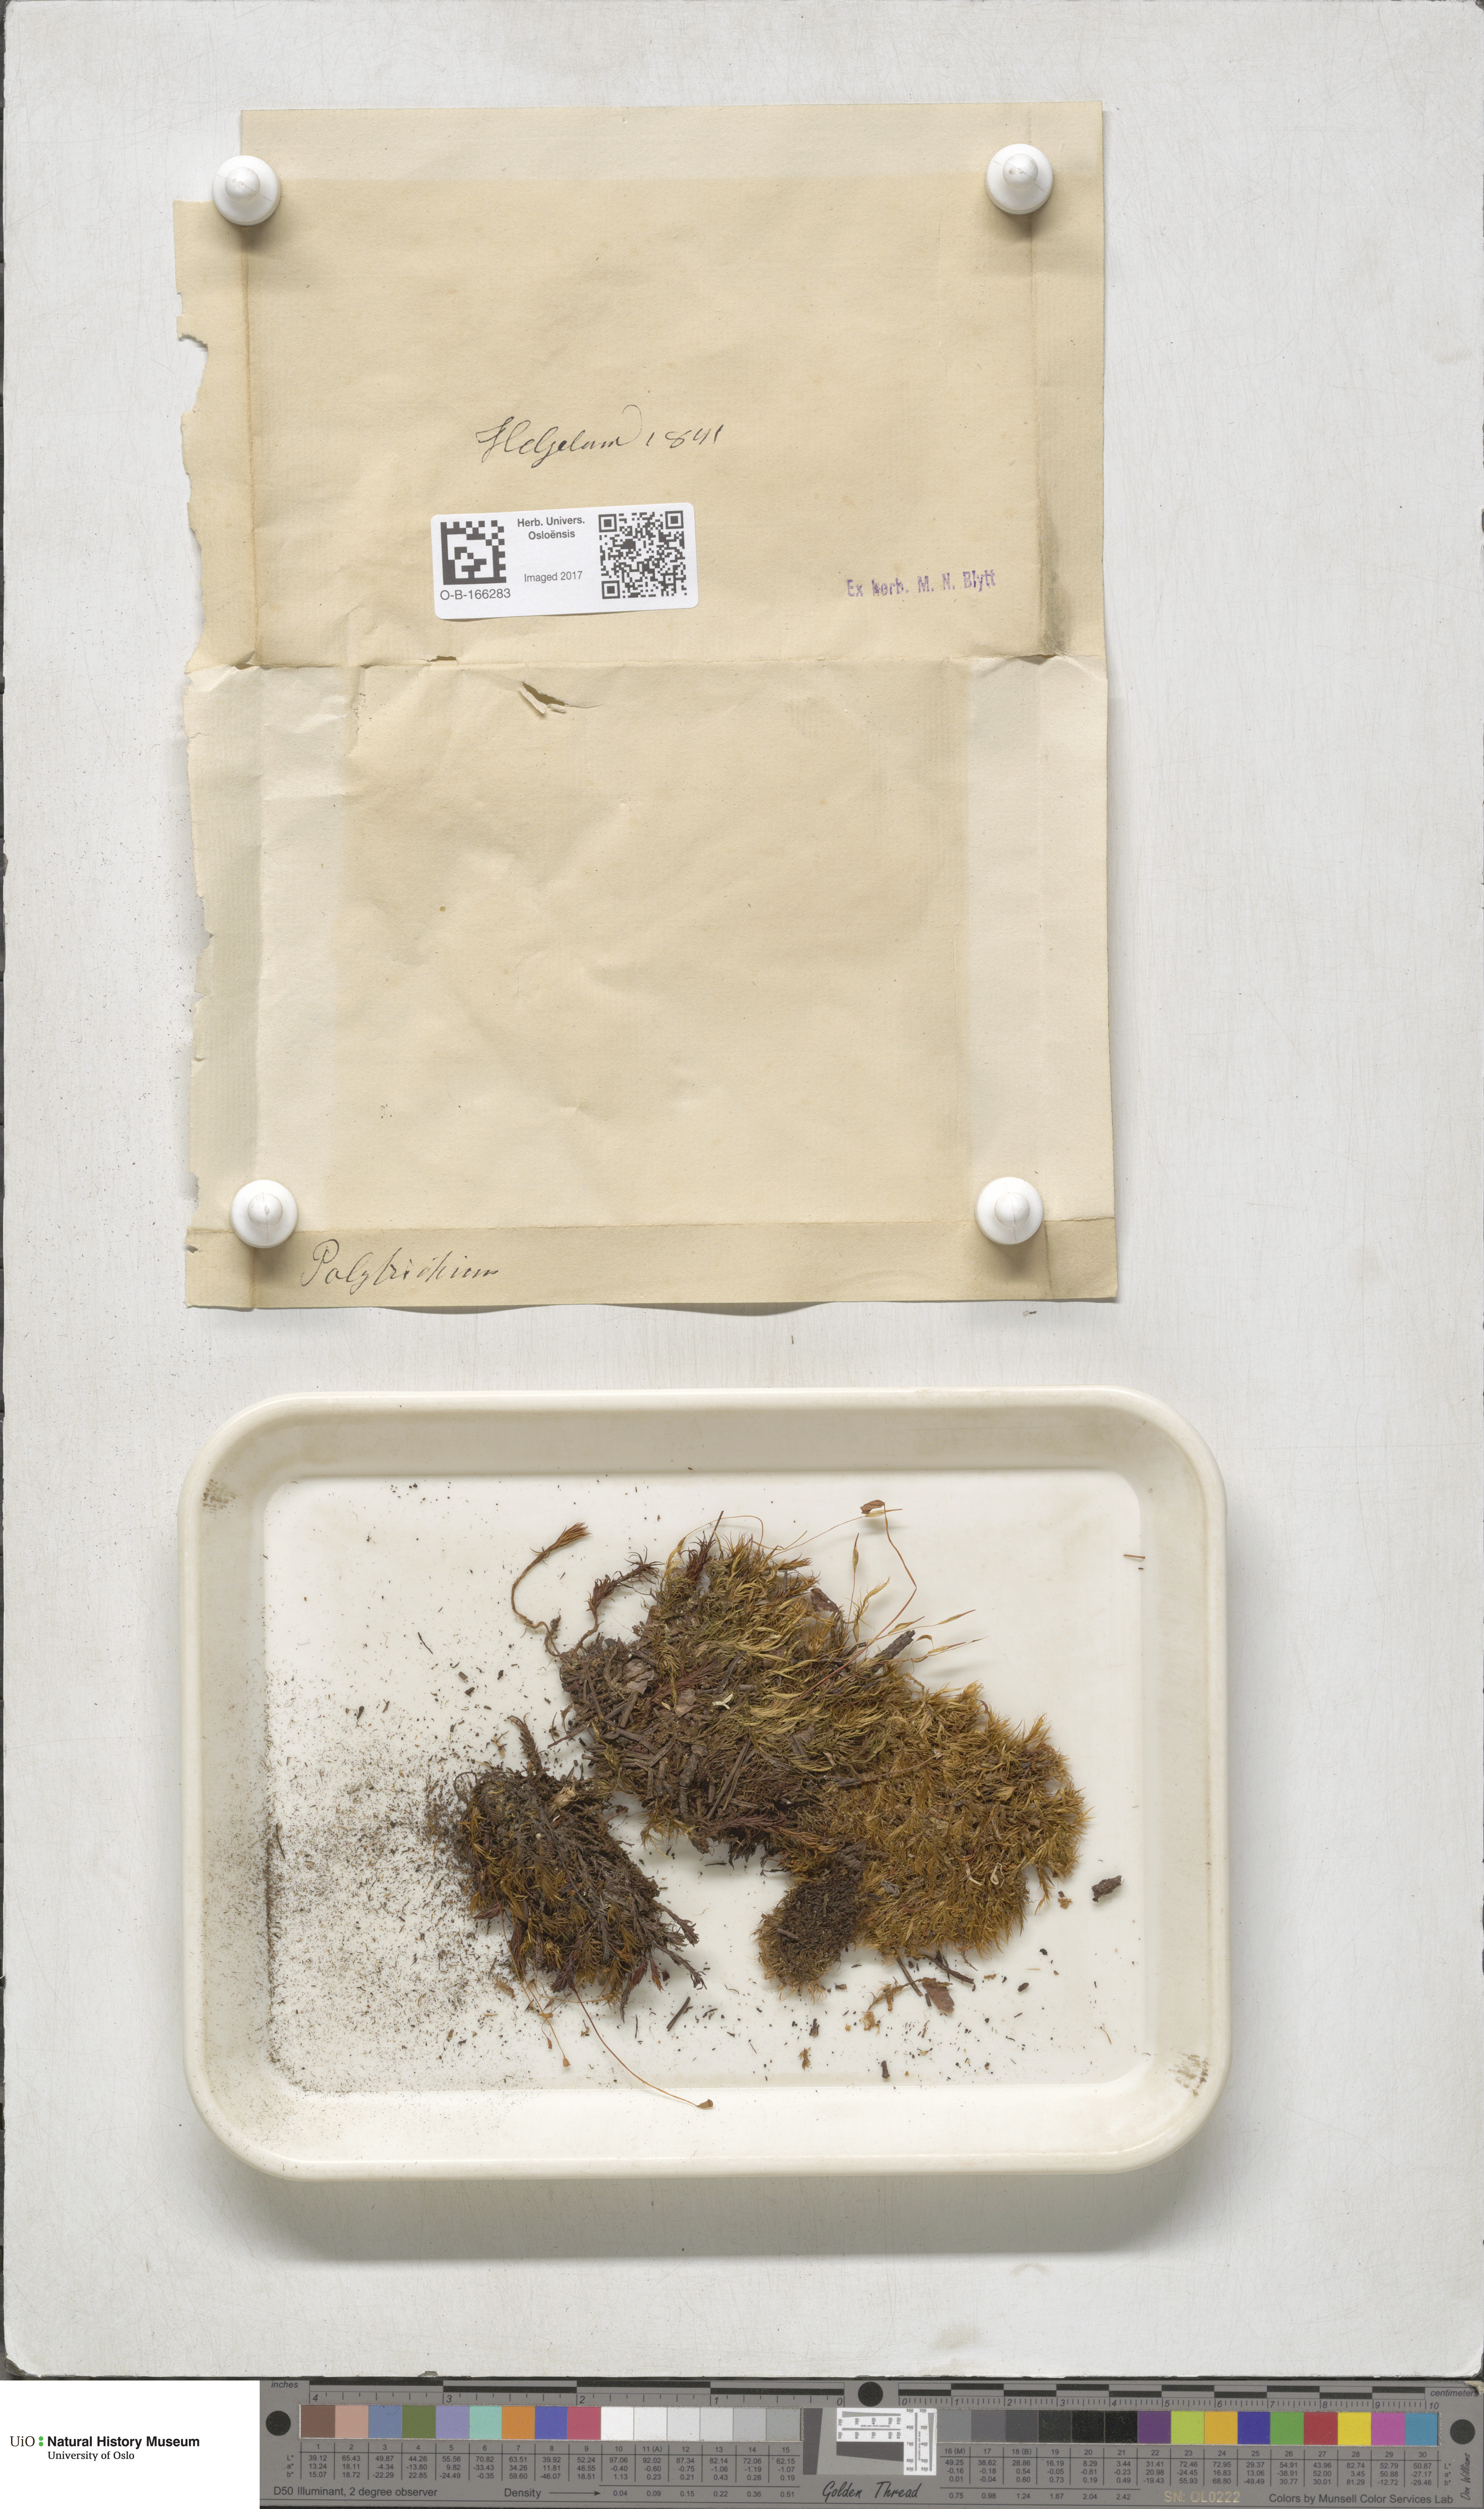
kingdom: Plantae
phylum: Bryophyta
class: Polytrichopsida
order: Polytrichales
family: Polytrichaceae
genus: Polytrichum
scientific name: Polytrichum
